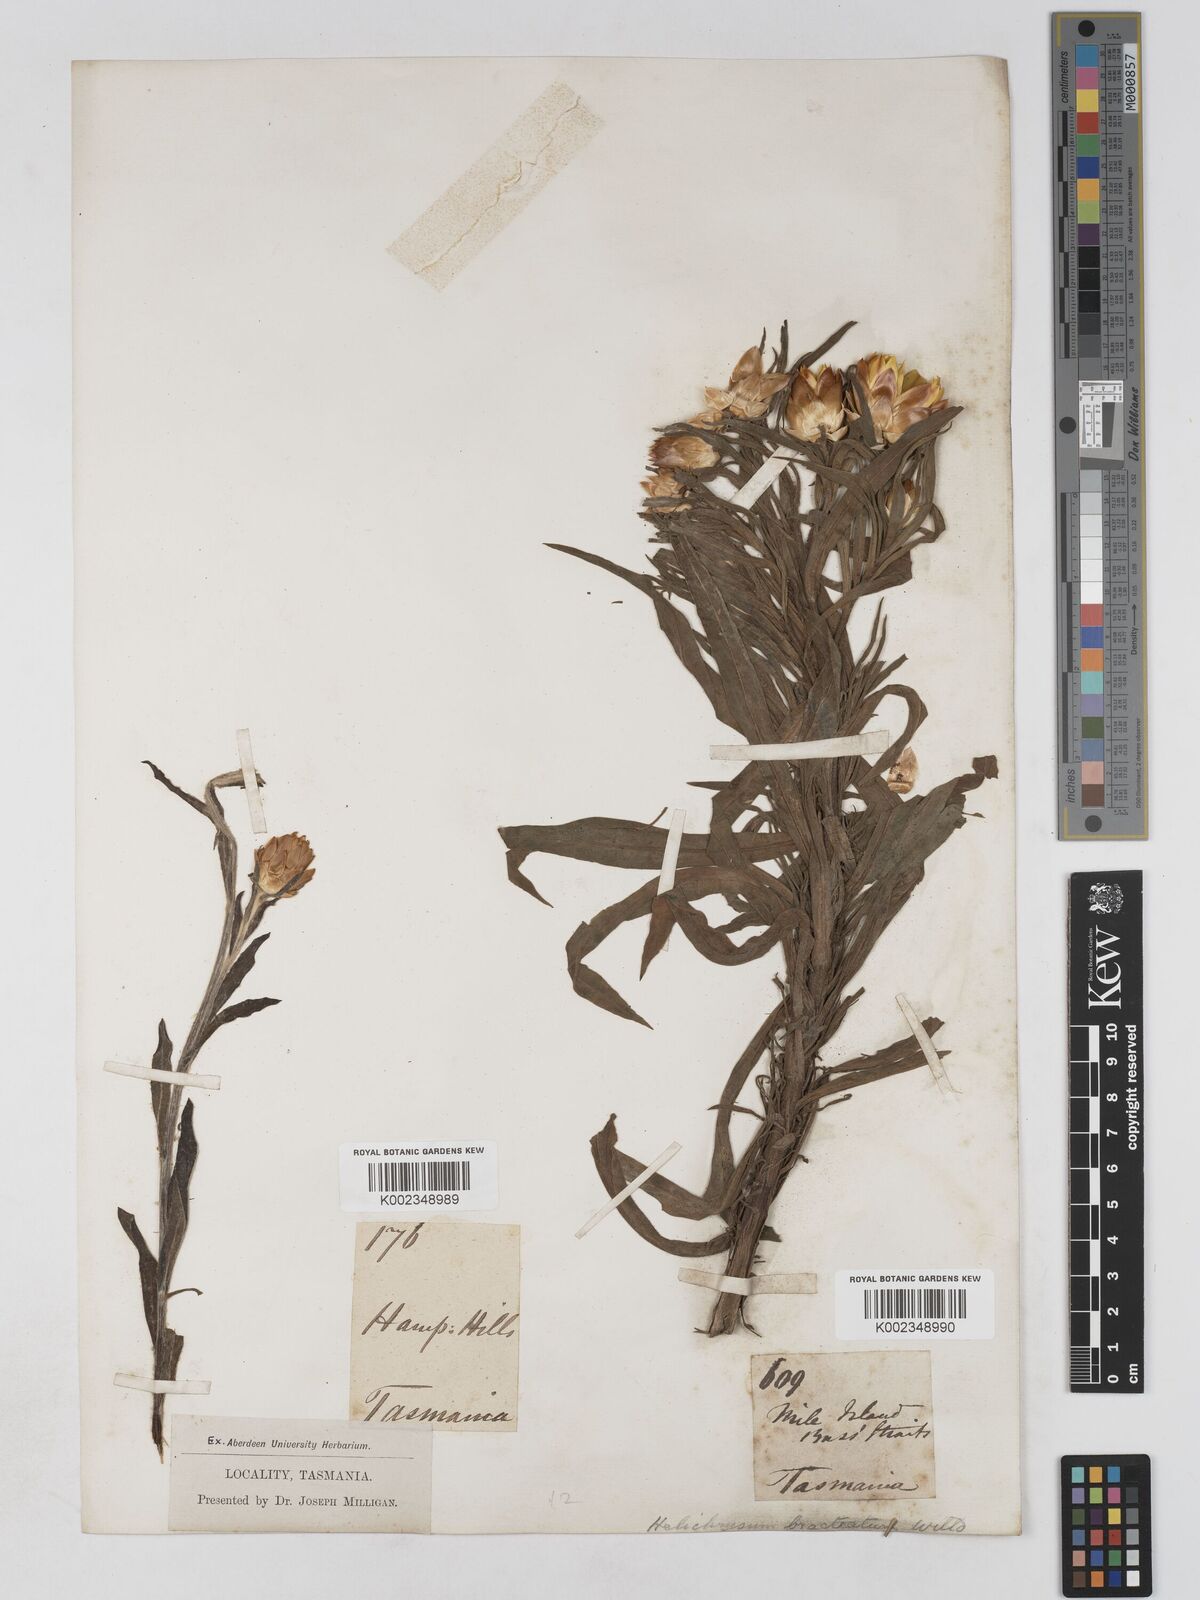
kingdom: Plantae
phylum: Tracheophyta
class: Magnoliopsida
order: Asterales
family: Asteraceae
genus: Xerochrysum
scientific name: Xerochrysum bracteatum
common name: Bracted strawflower
